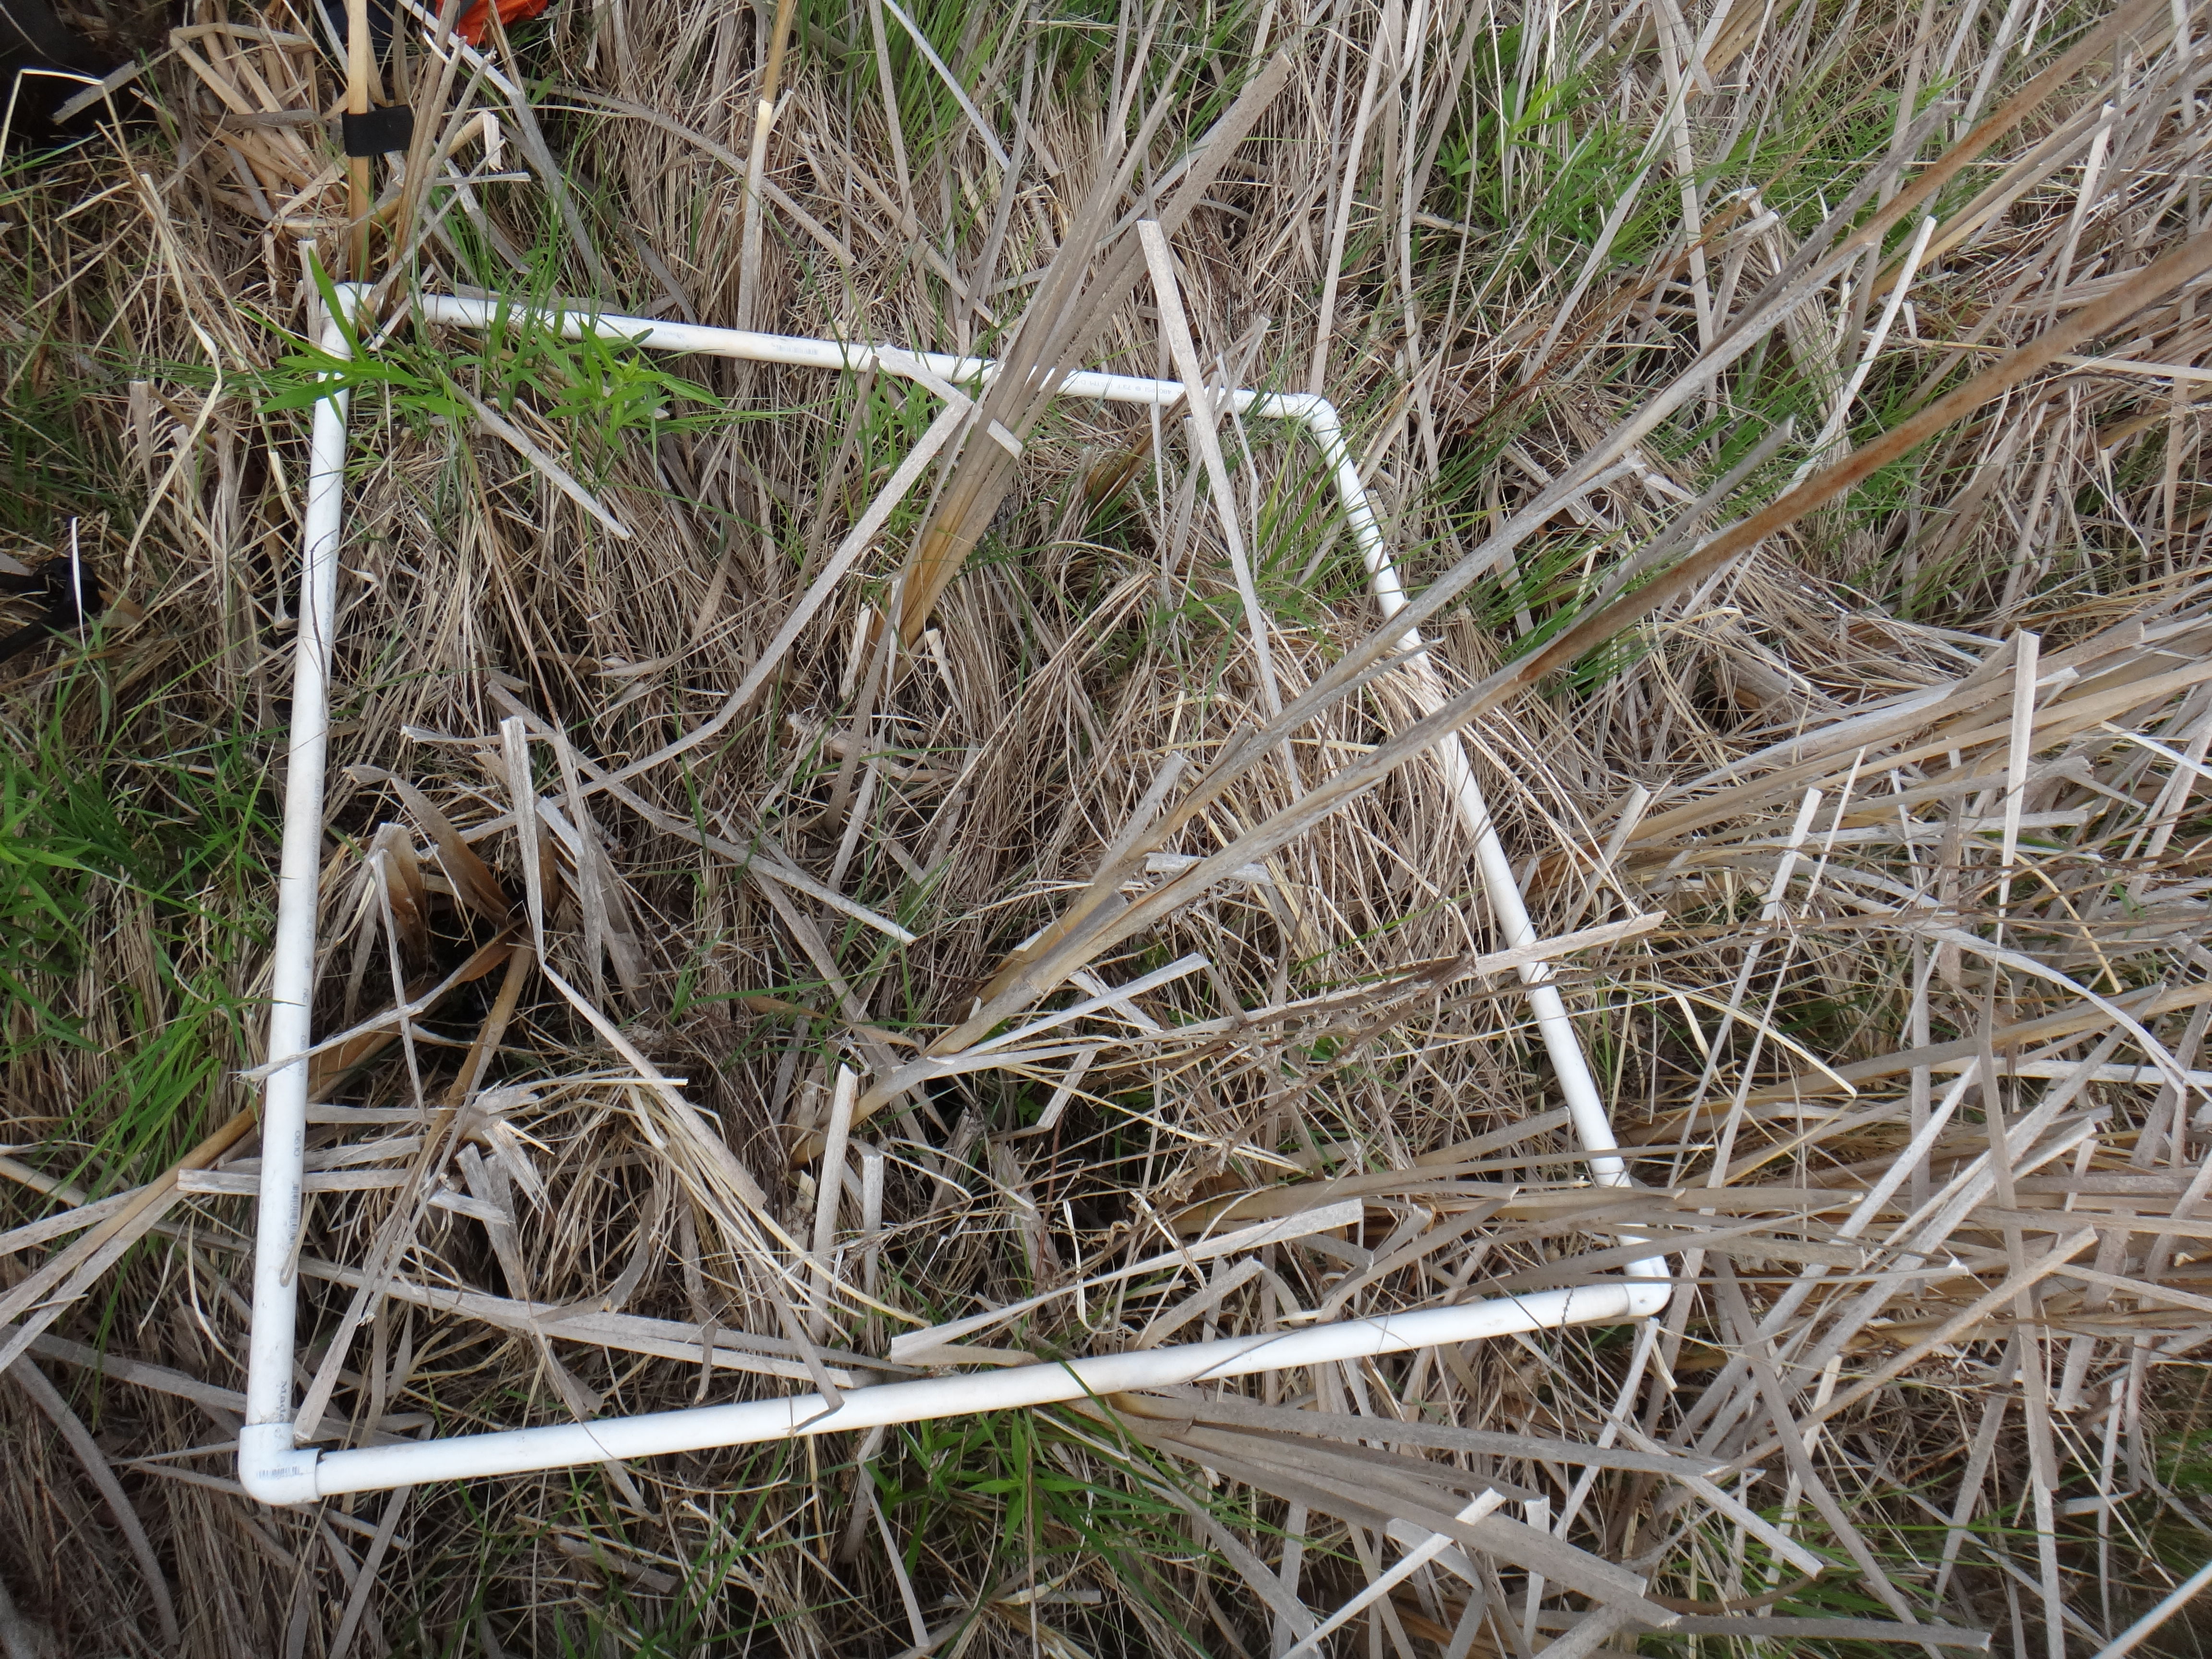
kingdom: Plantae
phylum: Tracheophyta
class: Magnoliopsida
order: Asterales
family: Asteraceae
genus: Eutrochium
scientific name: Eutrochium maculatum
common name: Spotted joe pye weed
